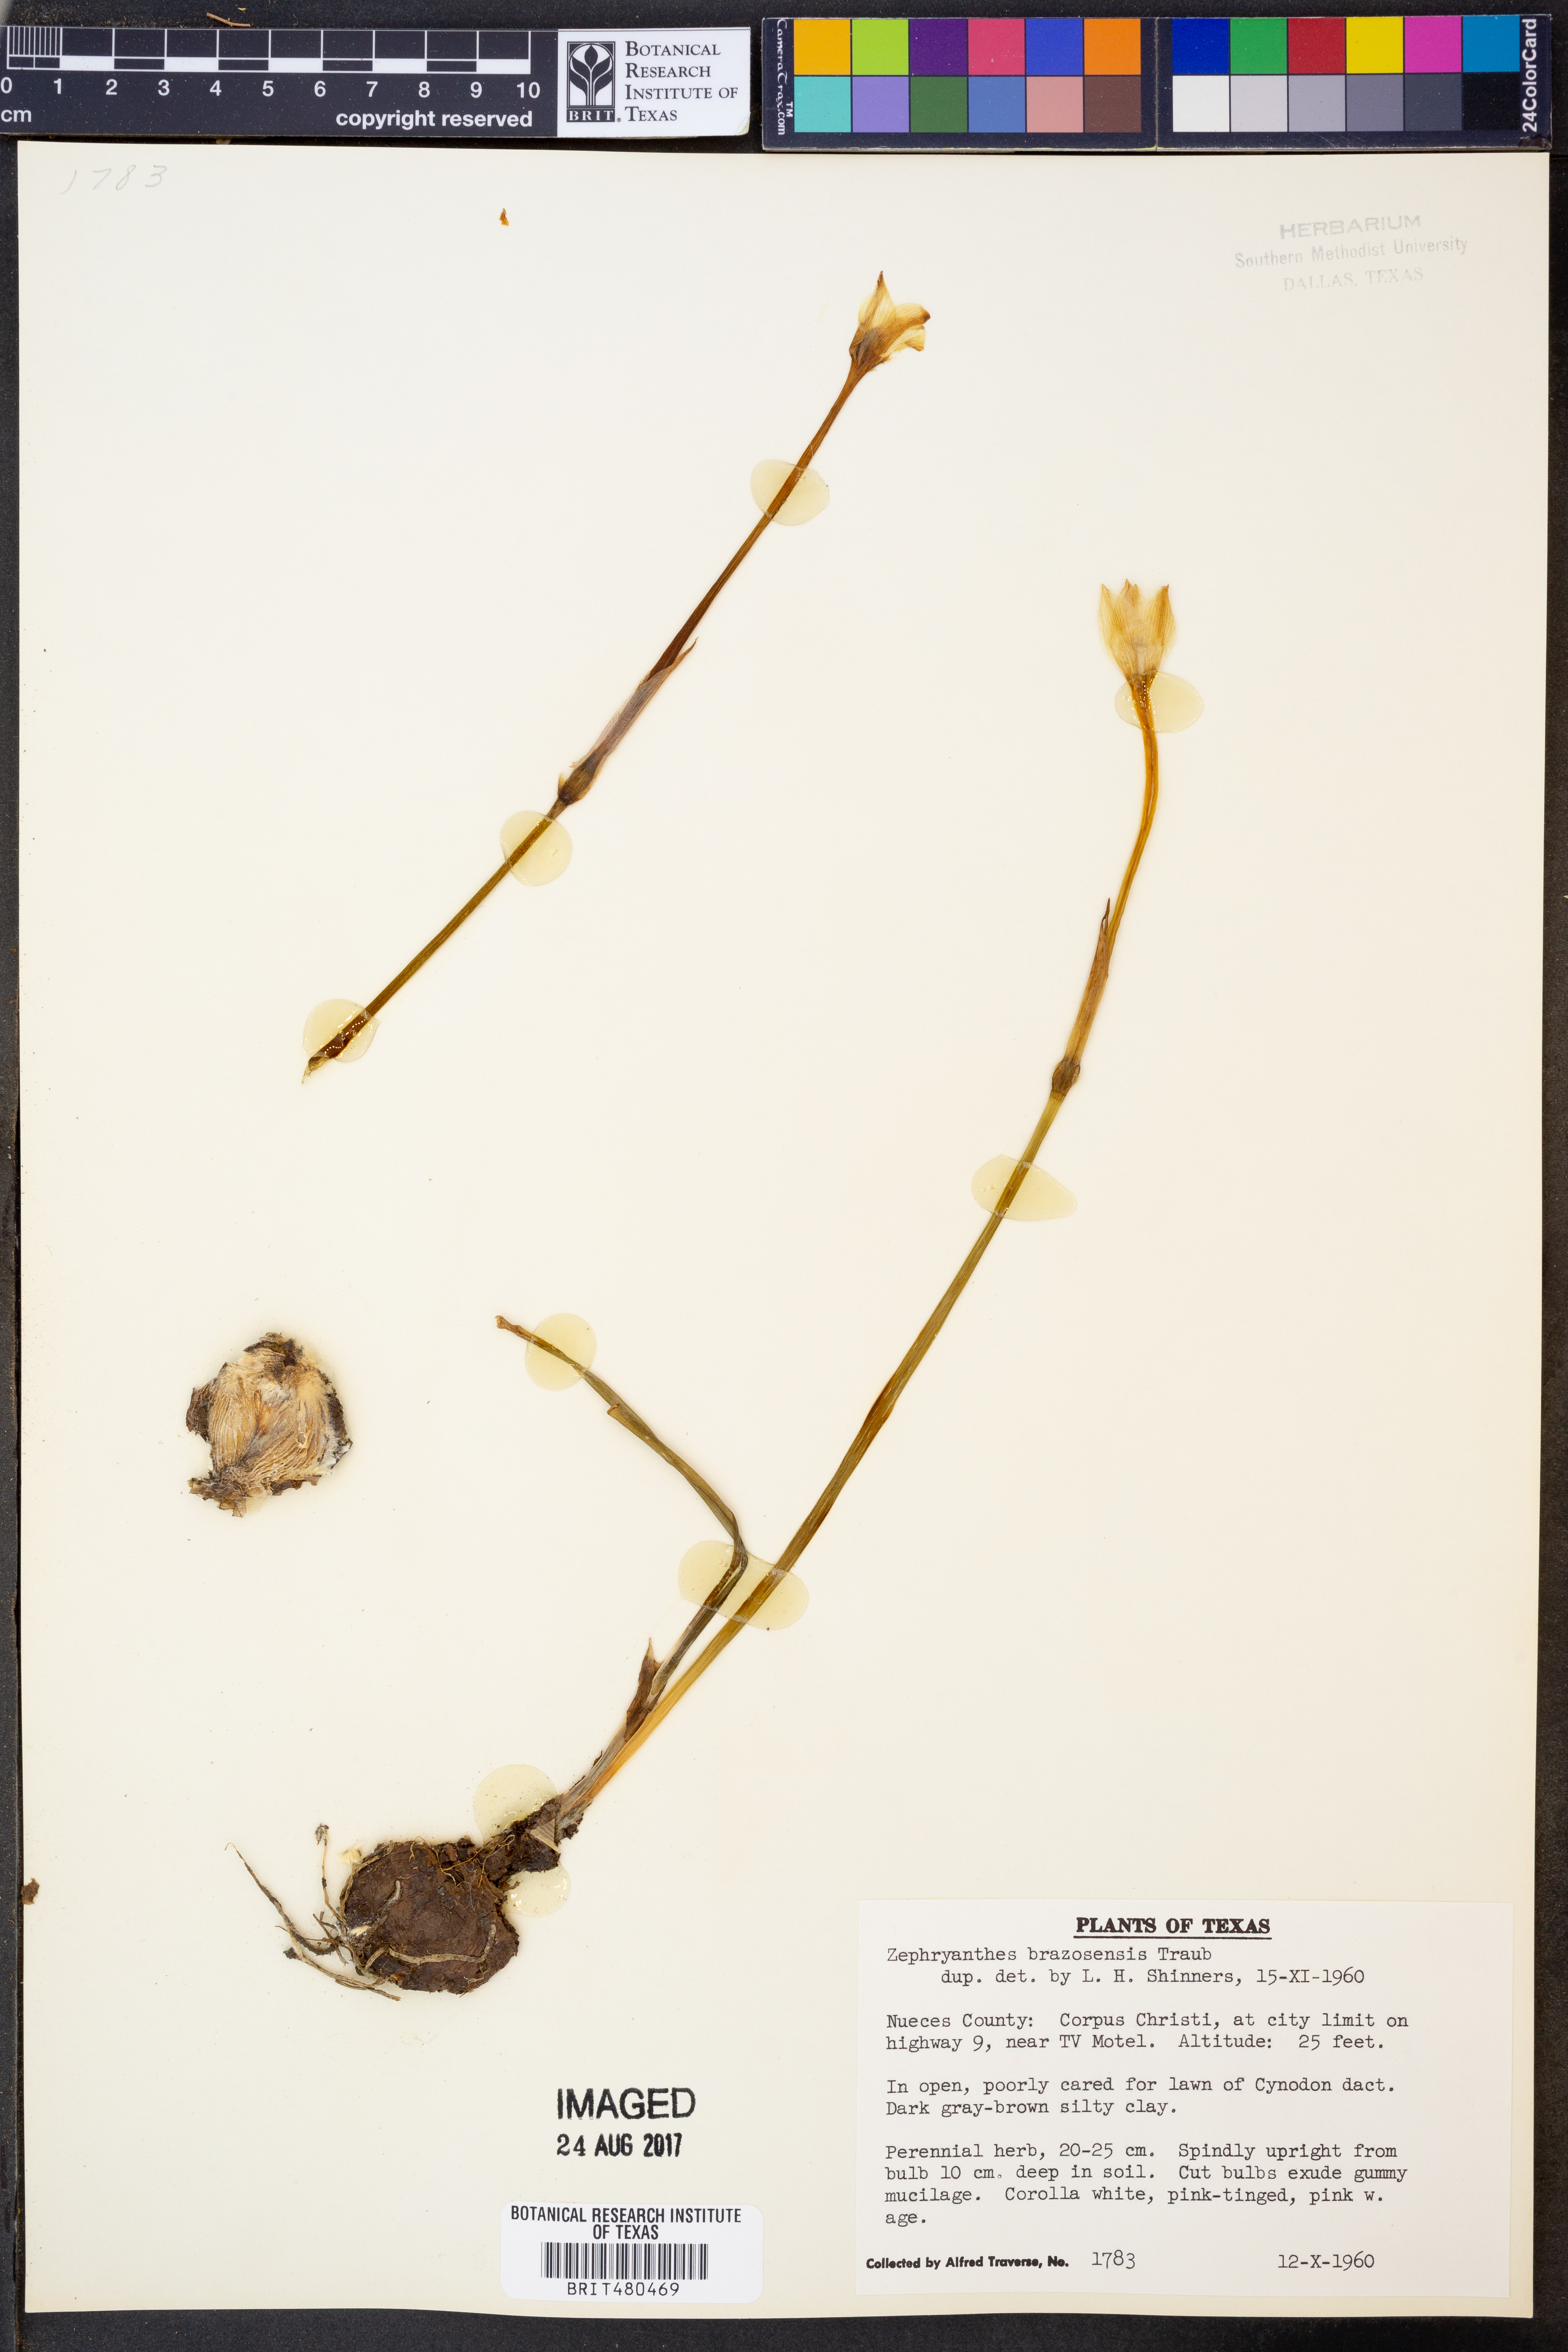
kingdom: Plantae
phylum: Tracheophyta
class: Liliopsida
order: Asparagales
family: Amaryllidaceae
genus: Zephyranthes
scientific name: Zephyranthes chlorosolen
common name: Evening rain-lily
